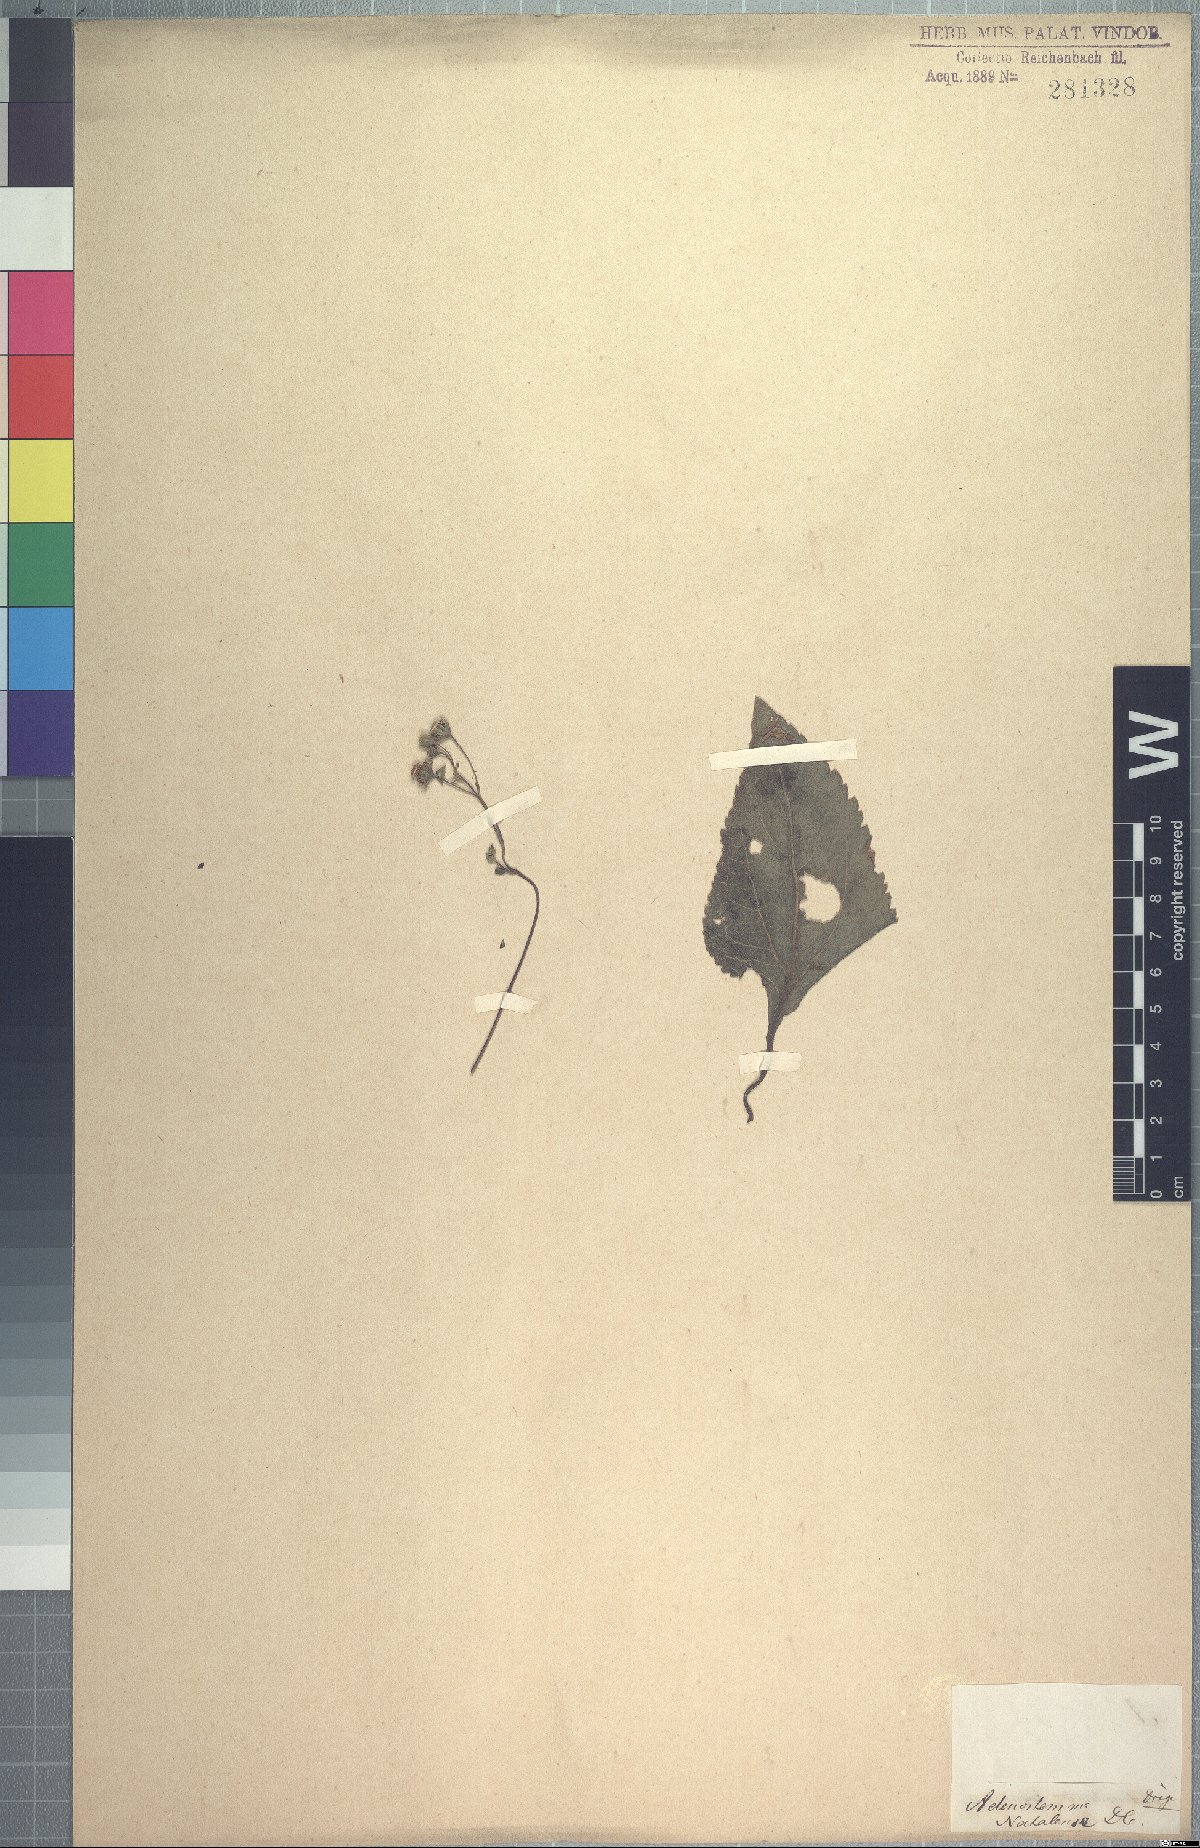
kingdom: Plantae
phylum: Tracheophyta
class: Magnoliopsida
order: Asterales
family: Asteraceae
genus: Adenostemma
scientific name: Adenostemma viscosum
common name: Dungweed
